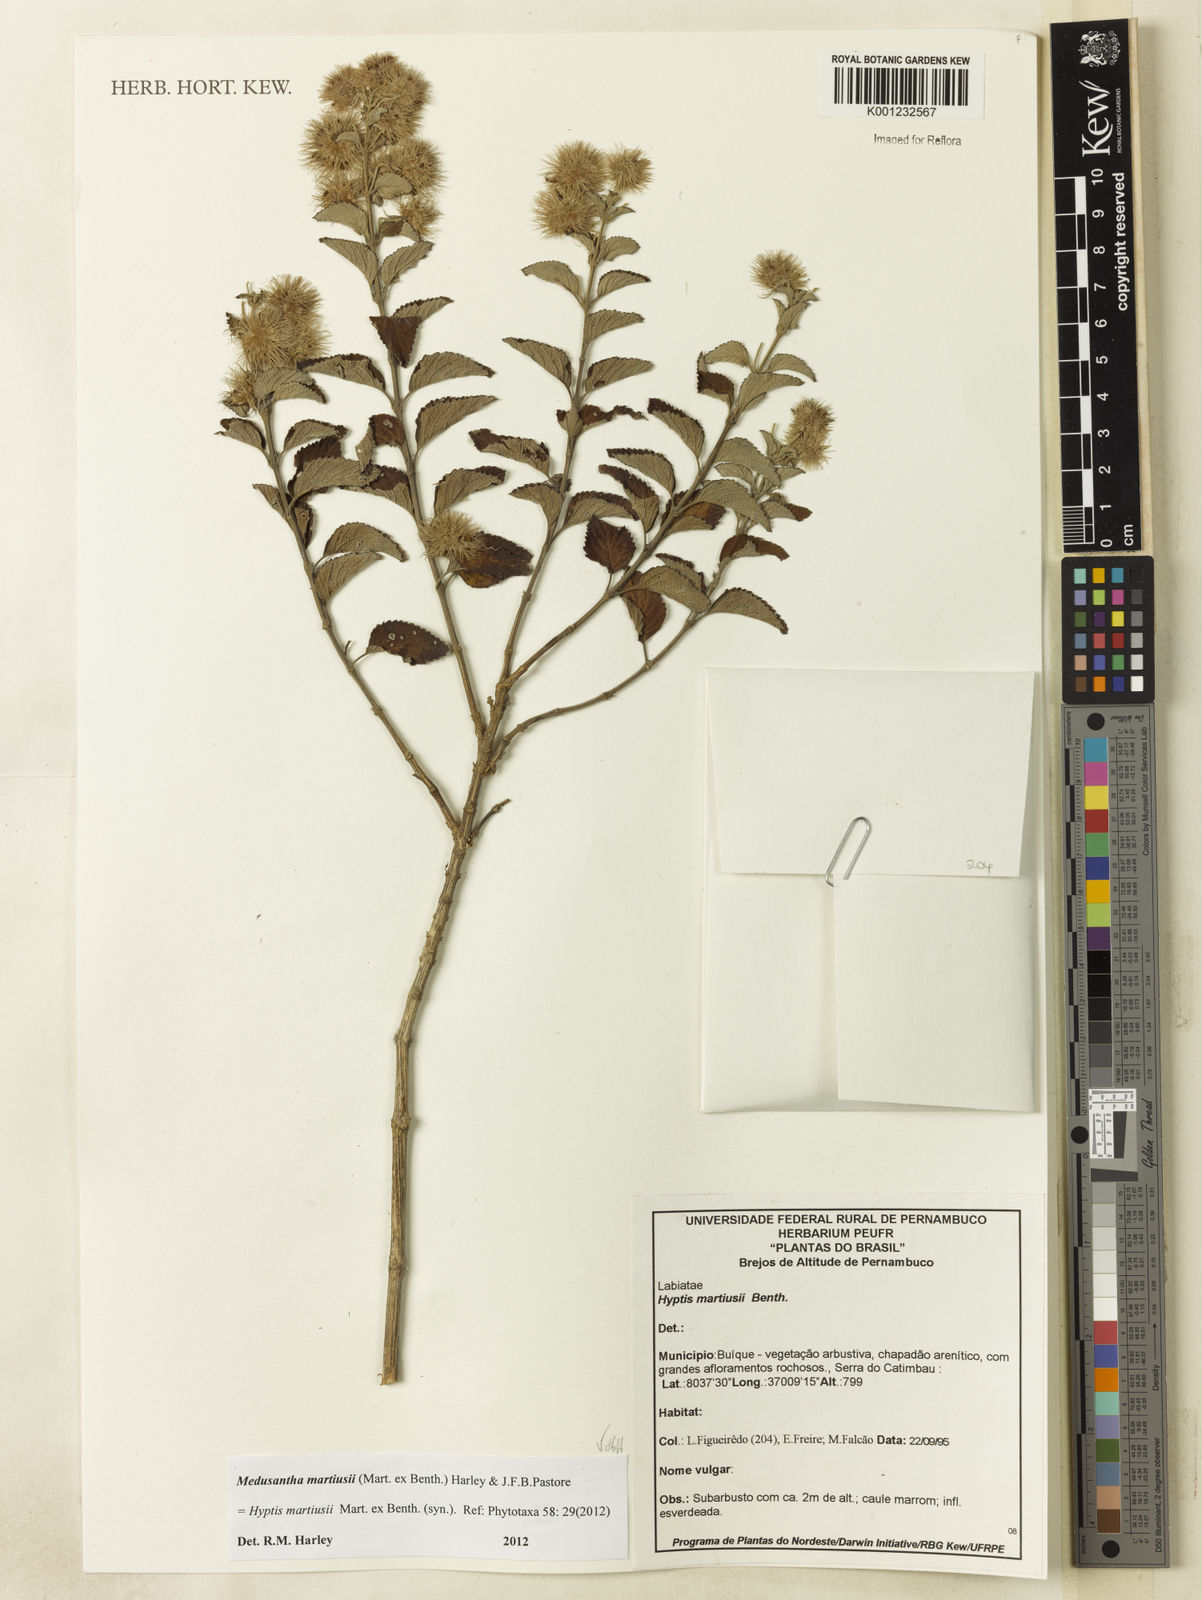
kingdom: Plantae
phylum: Tracheophyta
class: Magnoliopsida
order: Lamiales
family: Lamiaceae
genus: Medusantha
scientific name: Medusantha martiusii
